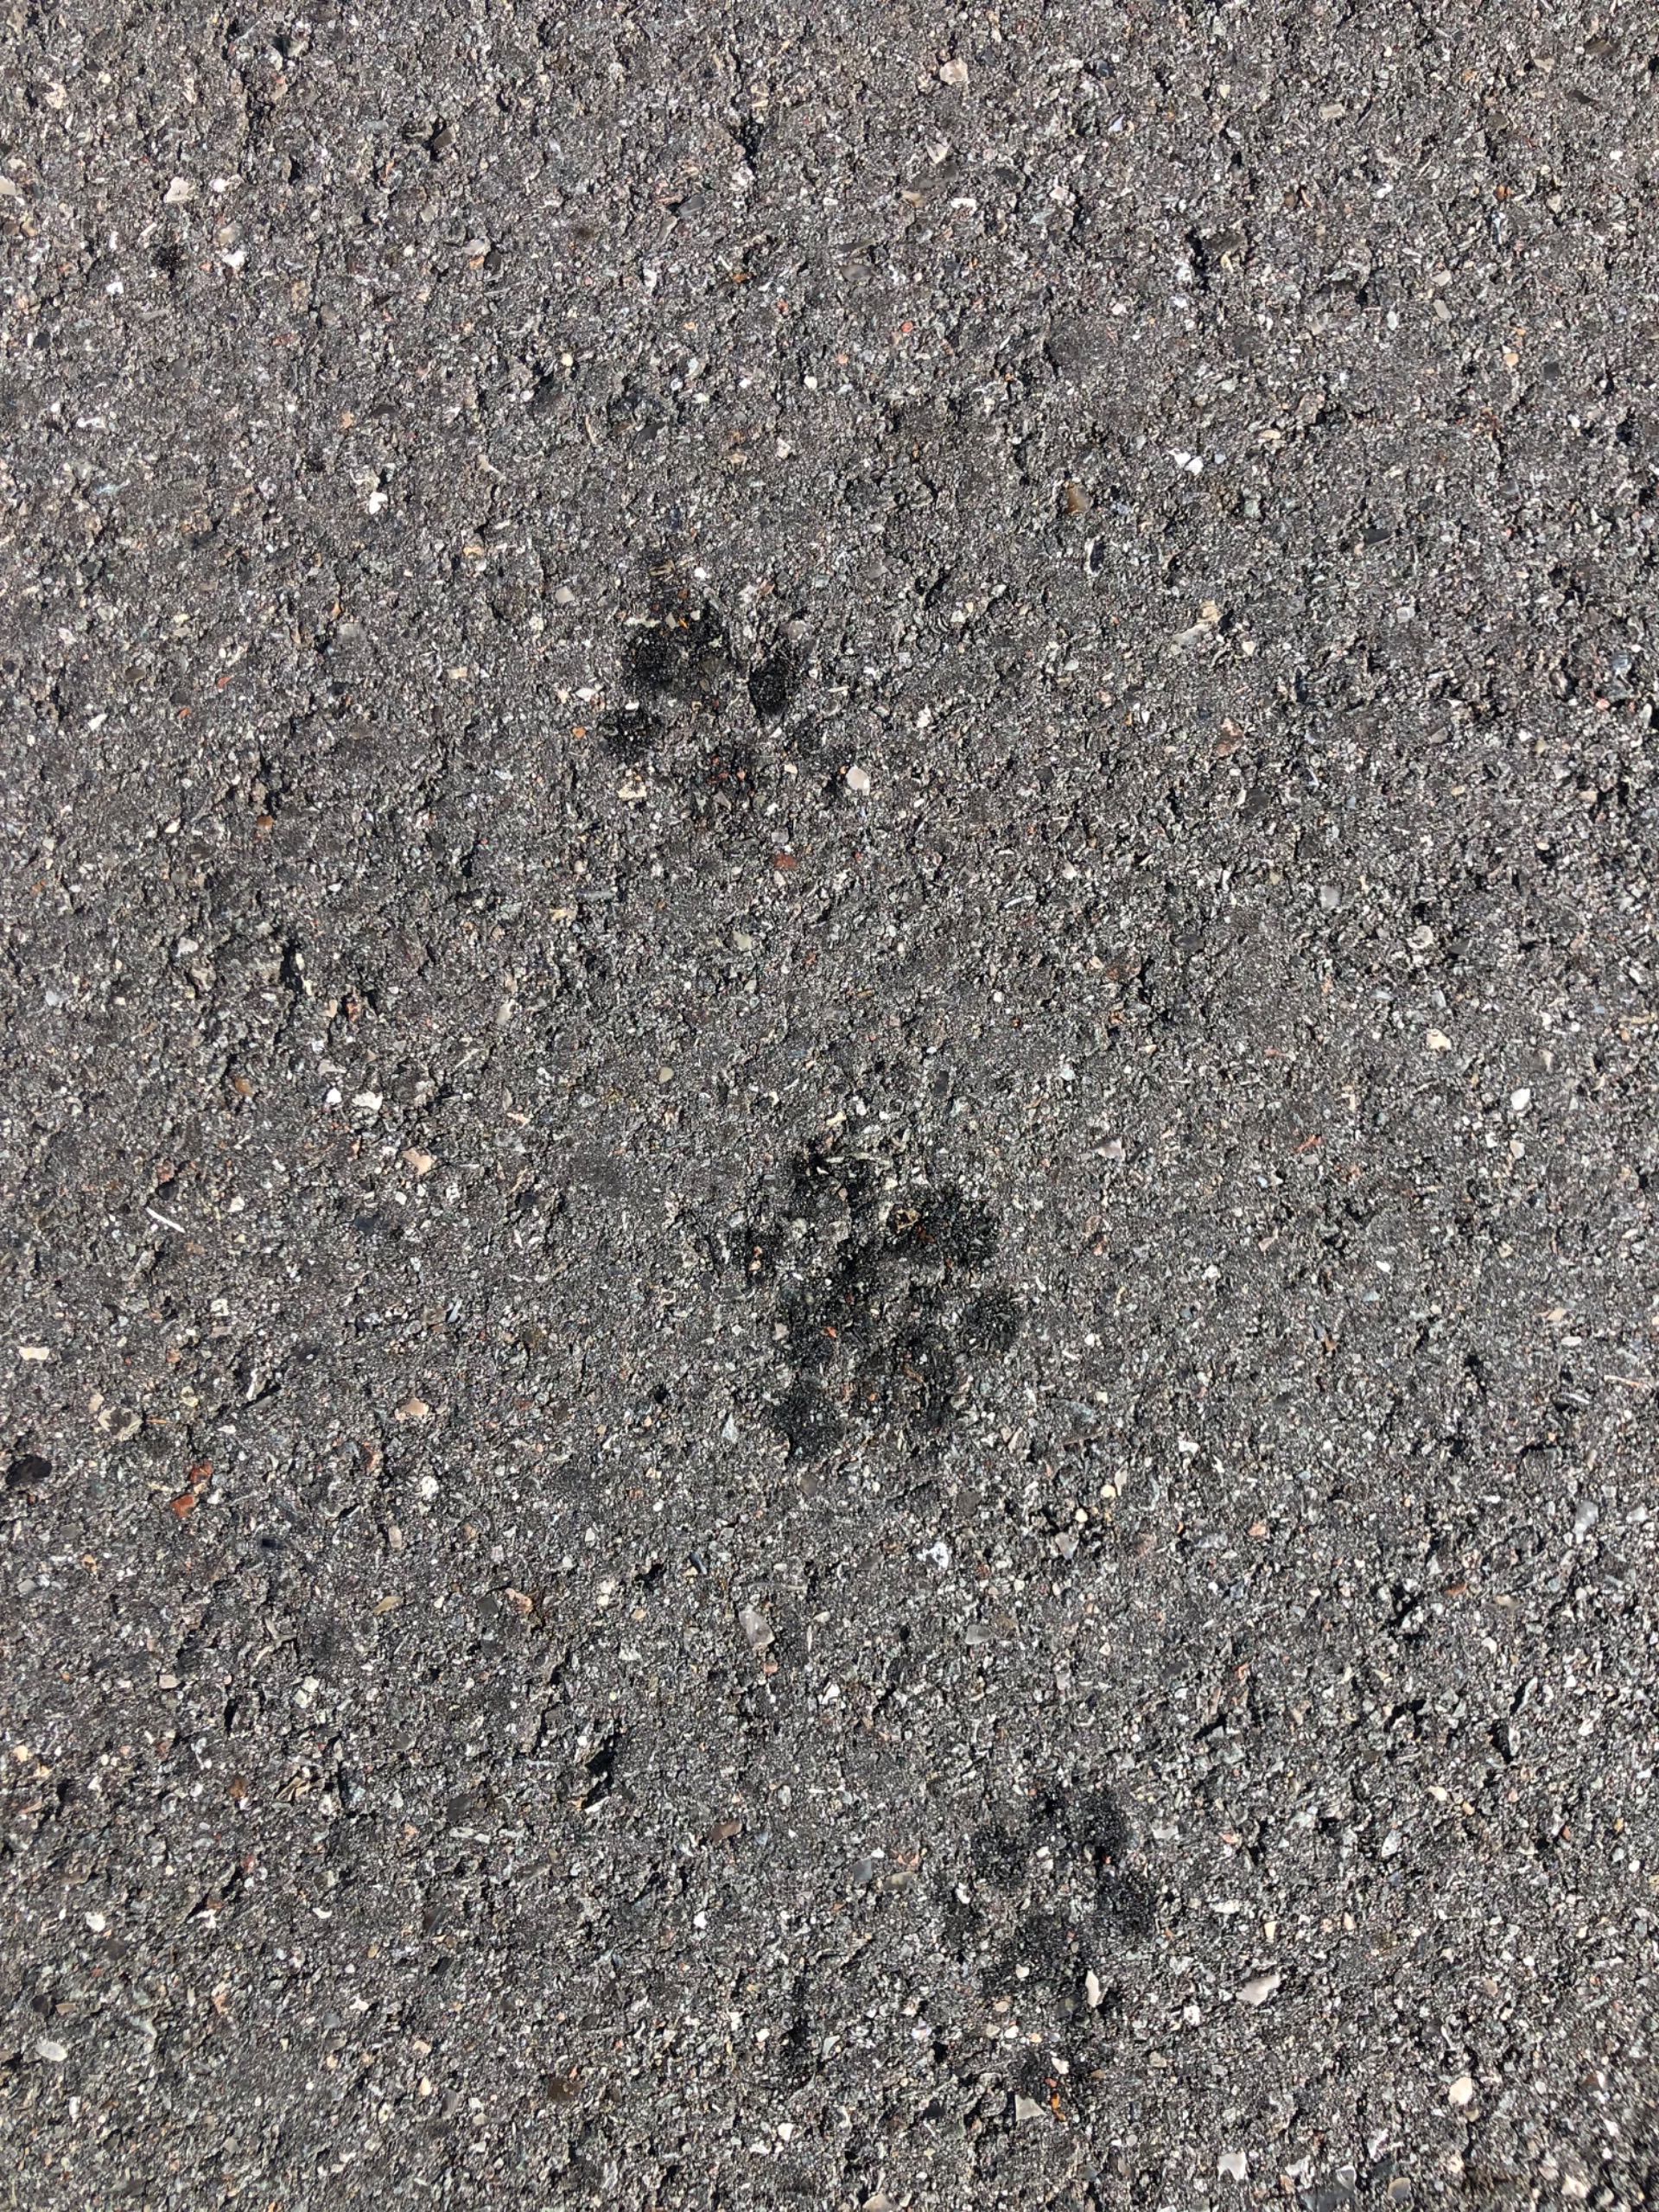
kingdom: Animalia
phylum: Chordata
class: Mammalia
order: Carnivora
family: Mustelidae
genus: Lutra
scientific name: Lutra lutra
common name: Odder
